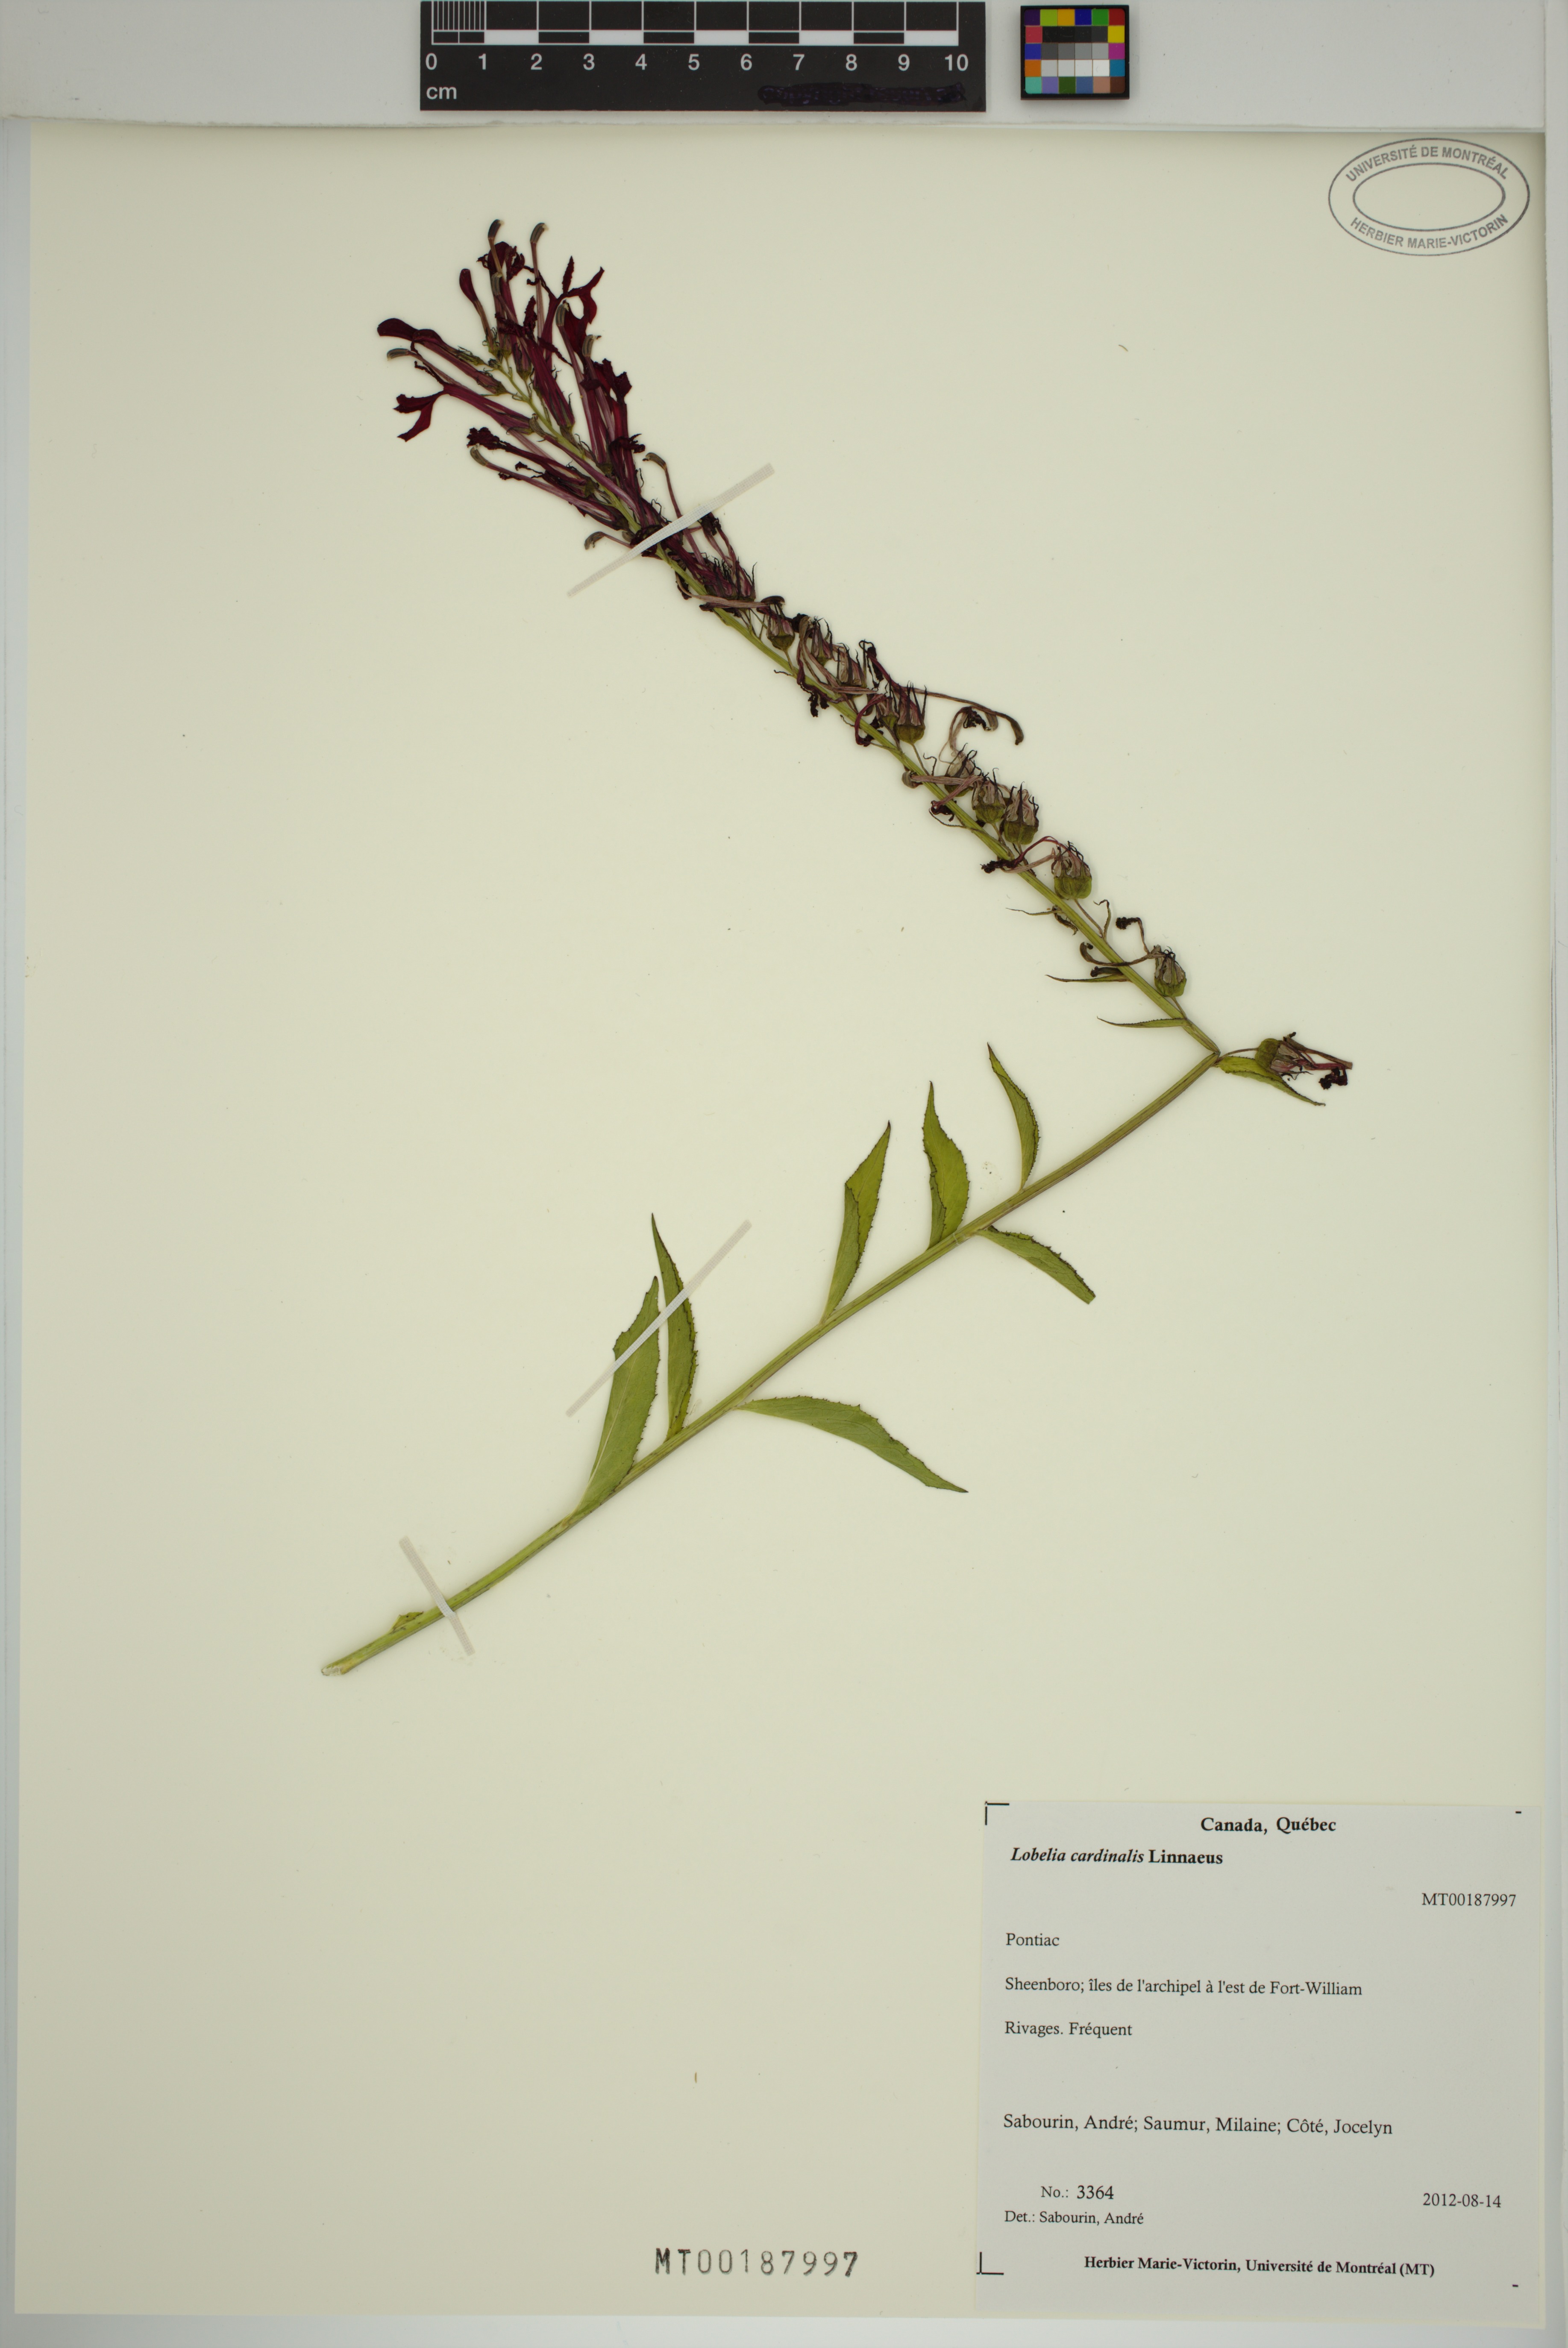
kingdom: Plantae
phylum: Tracheophyta
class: Magnoliopsida
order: Asterales
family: Campanulaceae
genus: Lobelia
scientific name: Lobelia cardinalis
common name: Cardinal flower
